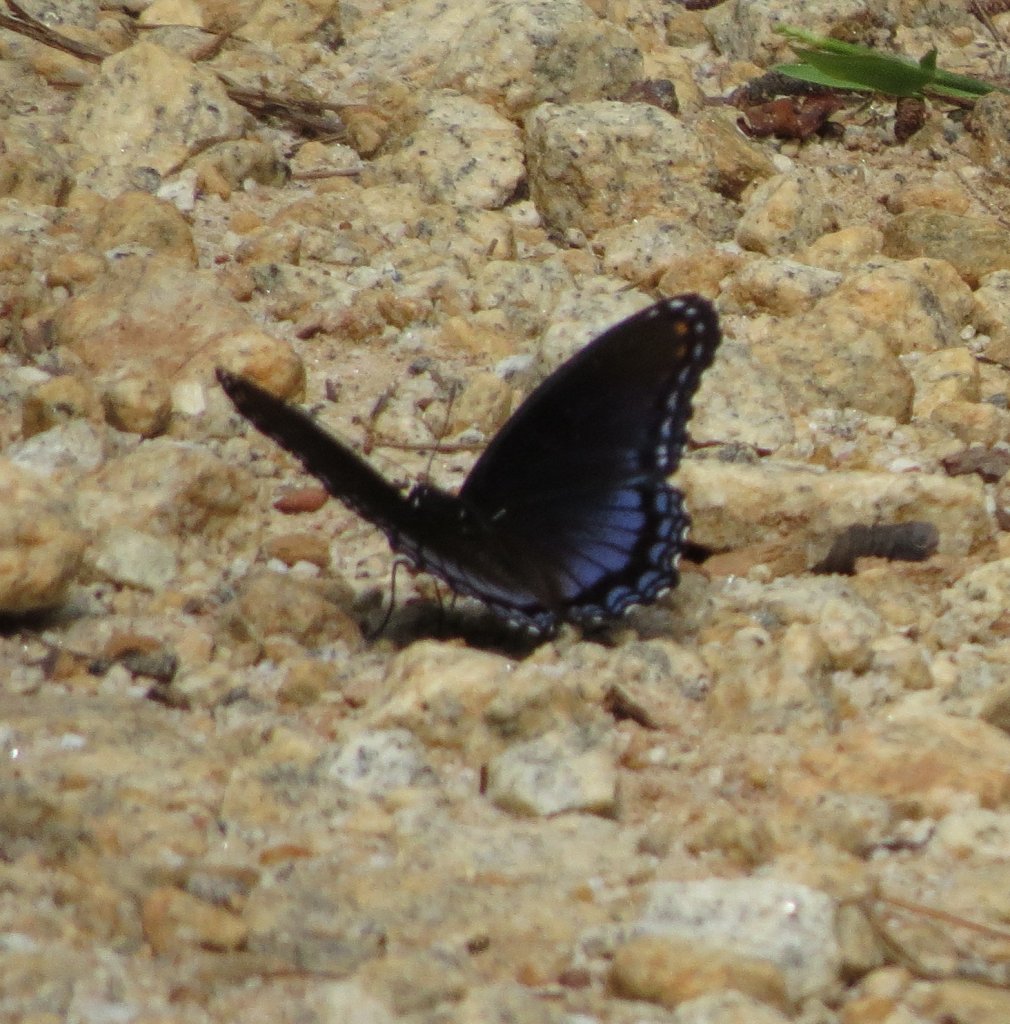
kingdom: Animalia
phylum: Arthropoda
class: Insecta
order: Lepidoptera
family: Nymphalidae
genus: Limenitis
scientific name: Limenitis astyanax
